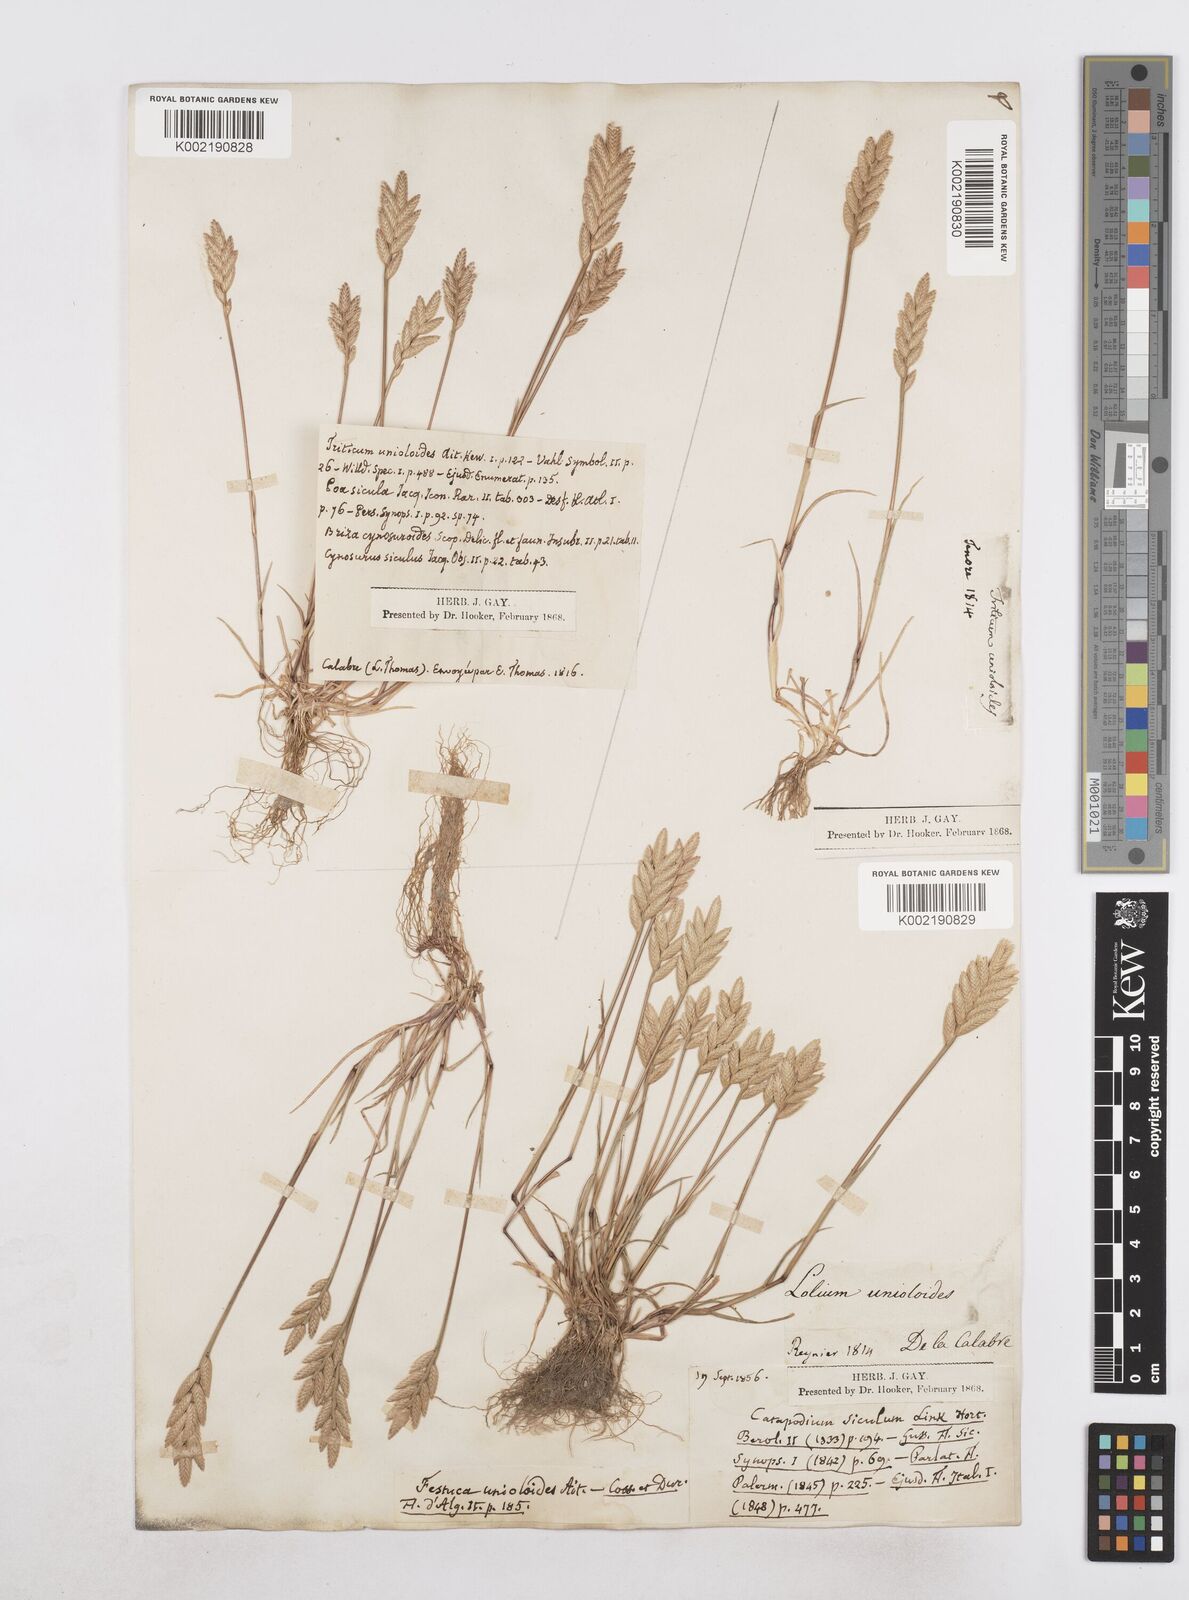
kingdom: Plantae
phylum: Tracheophyta
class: Liliopsida
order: Poales
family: Poaceae
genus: Desmazeria
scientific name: Desmazeria sicula
